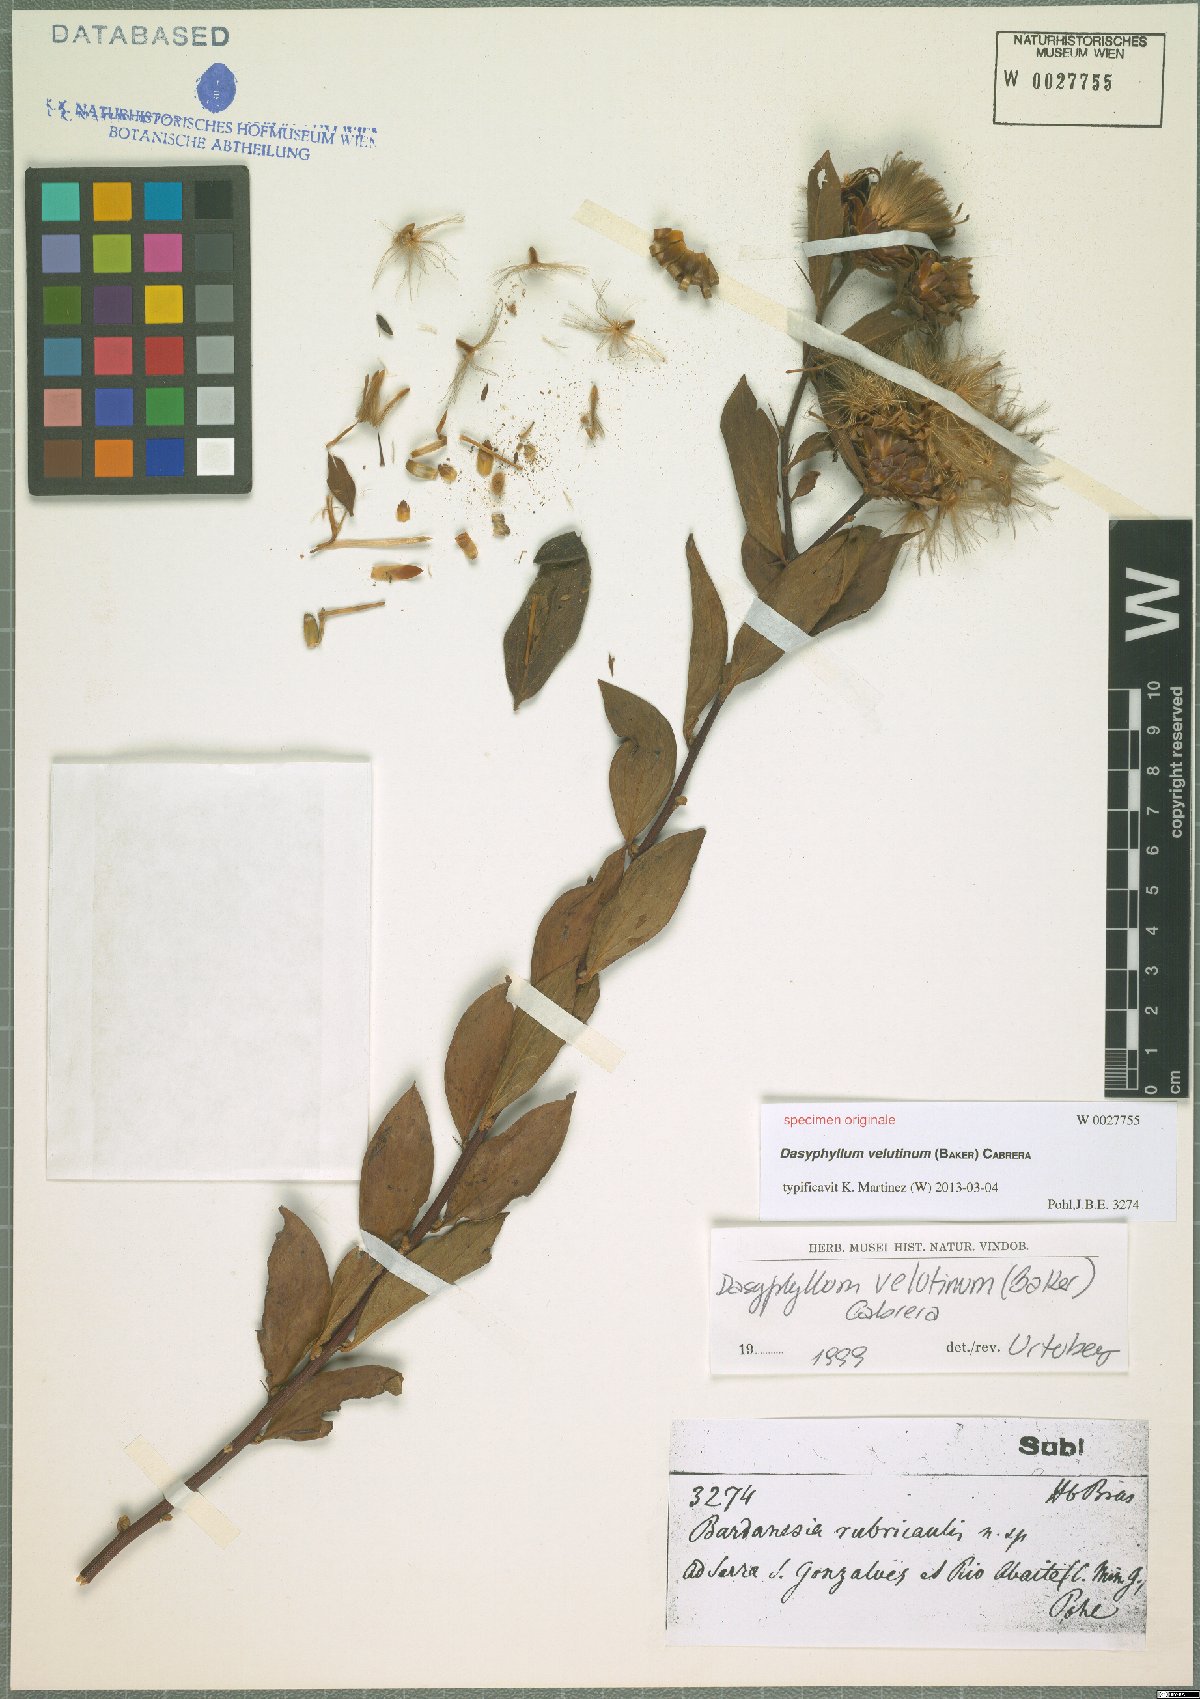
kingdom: Plantae
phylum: Tracheophyta
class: Magnoliopsida
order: Asterales
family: Asteraceae
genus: Dasyphyllum
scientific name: Dasyphyllum velutinum
